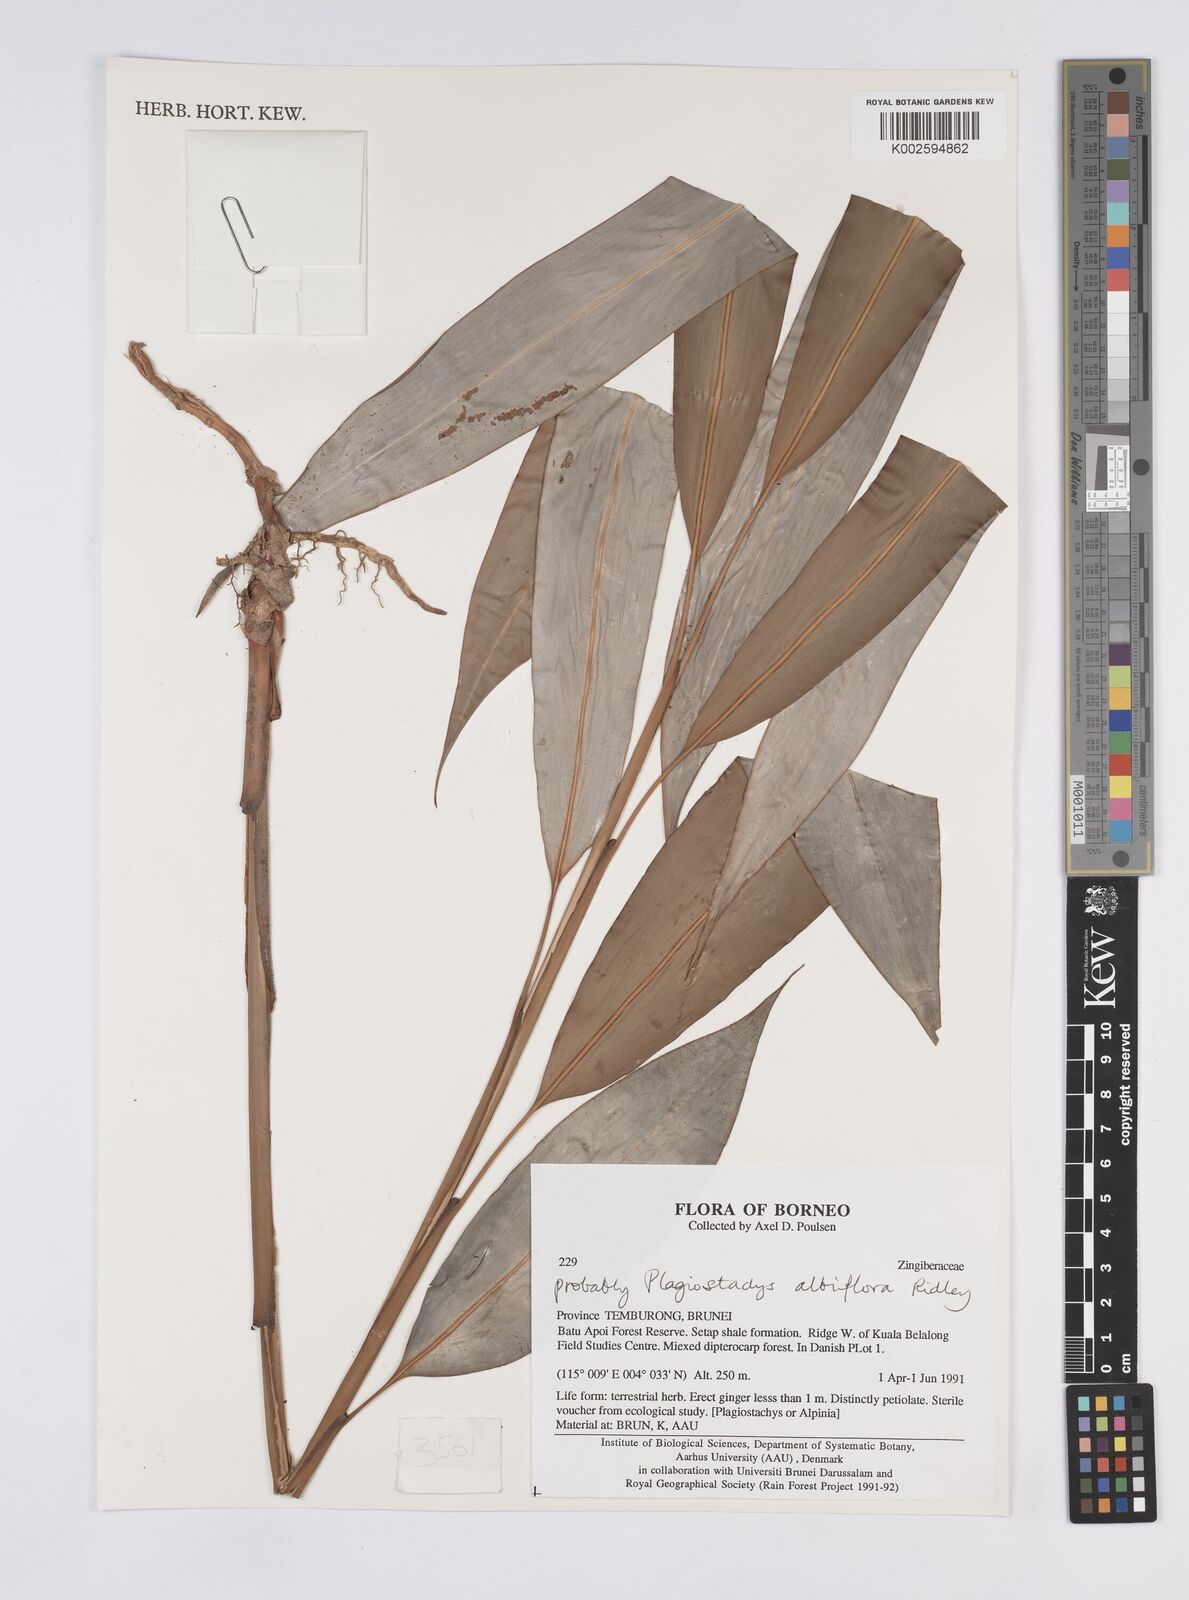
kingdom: Plantae
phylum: Tracheophyta
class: Liliopsida
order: Zingiberales
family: Zingiberaceae
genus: Plagiostachys
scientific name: Plagiostachys albiflora
